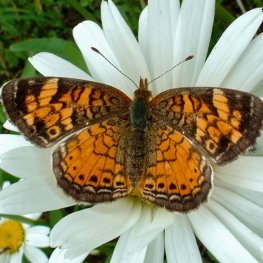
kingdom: Animalia
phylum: Arthropoda
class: Insecta
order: Lepidoptera
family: Nymphalidae
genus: Phyciodes
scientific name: Phyciodes tharos
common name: Pearl Crescent
